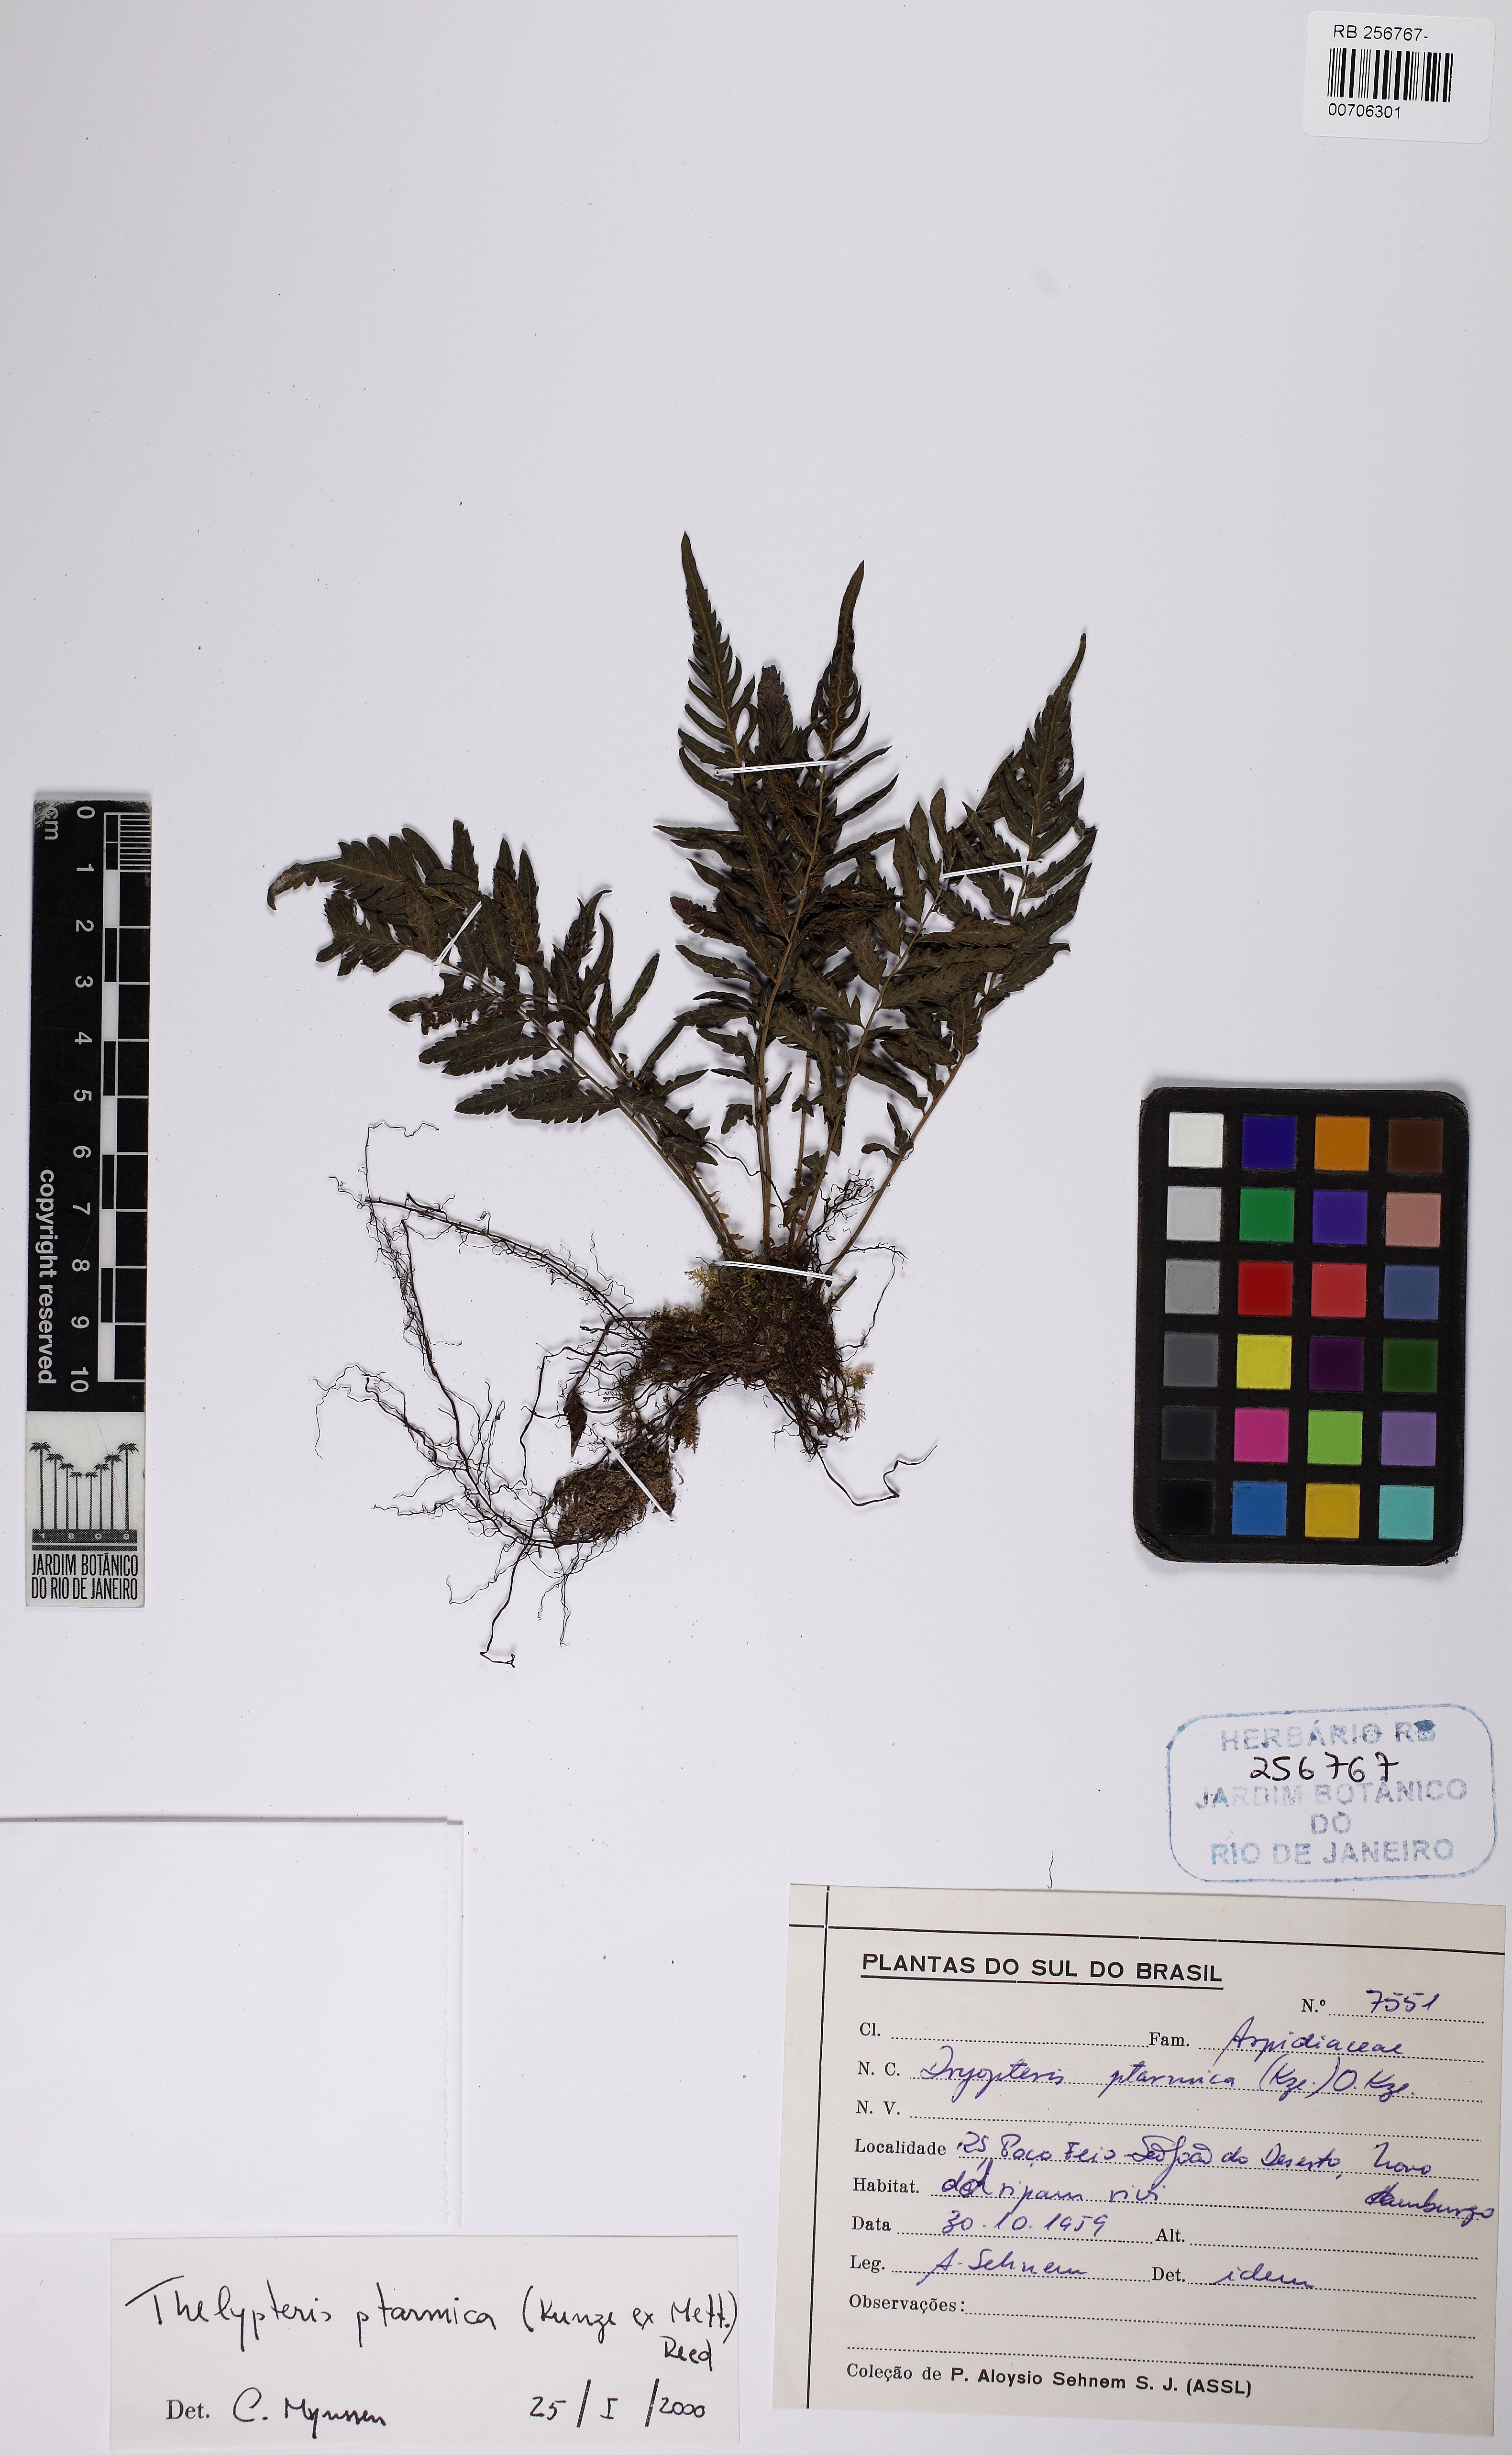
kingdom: Plantae
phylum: Tracheophyta
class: Polypodiopsida
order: Polypodiales
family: Thelypteridaceae
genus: Amauropelta
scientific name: Amauropelta ptarmica
